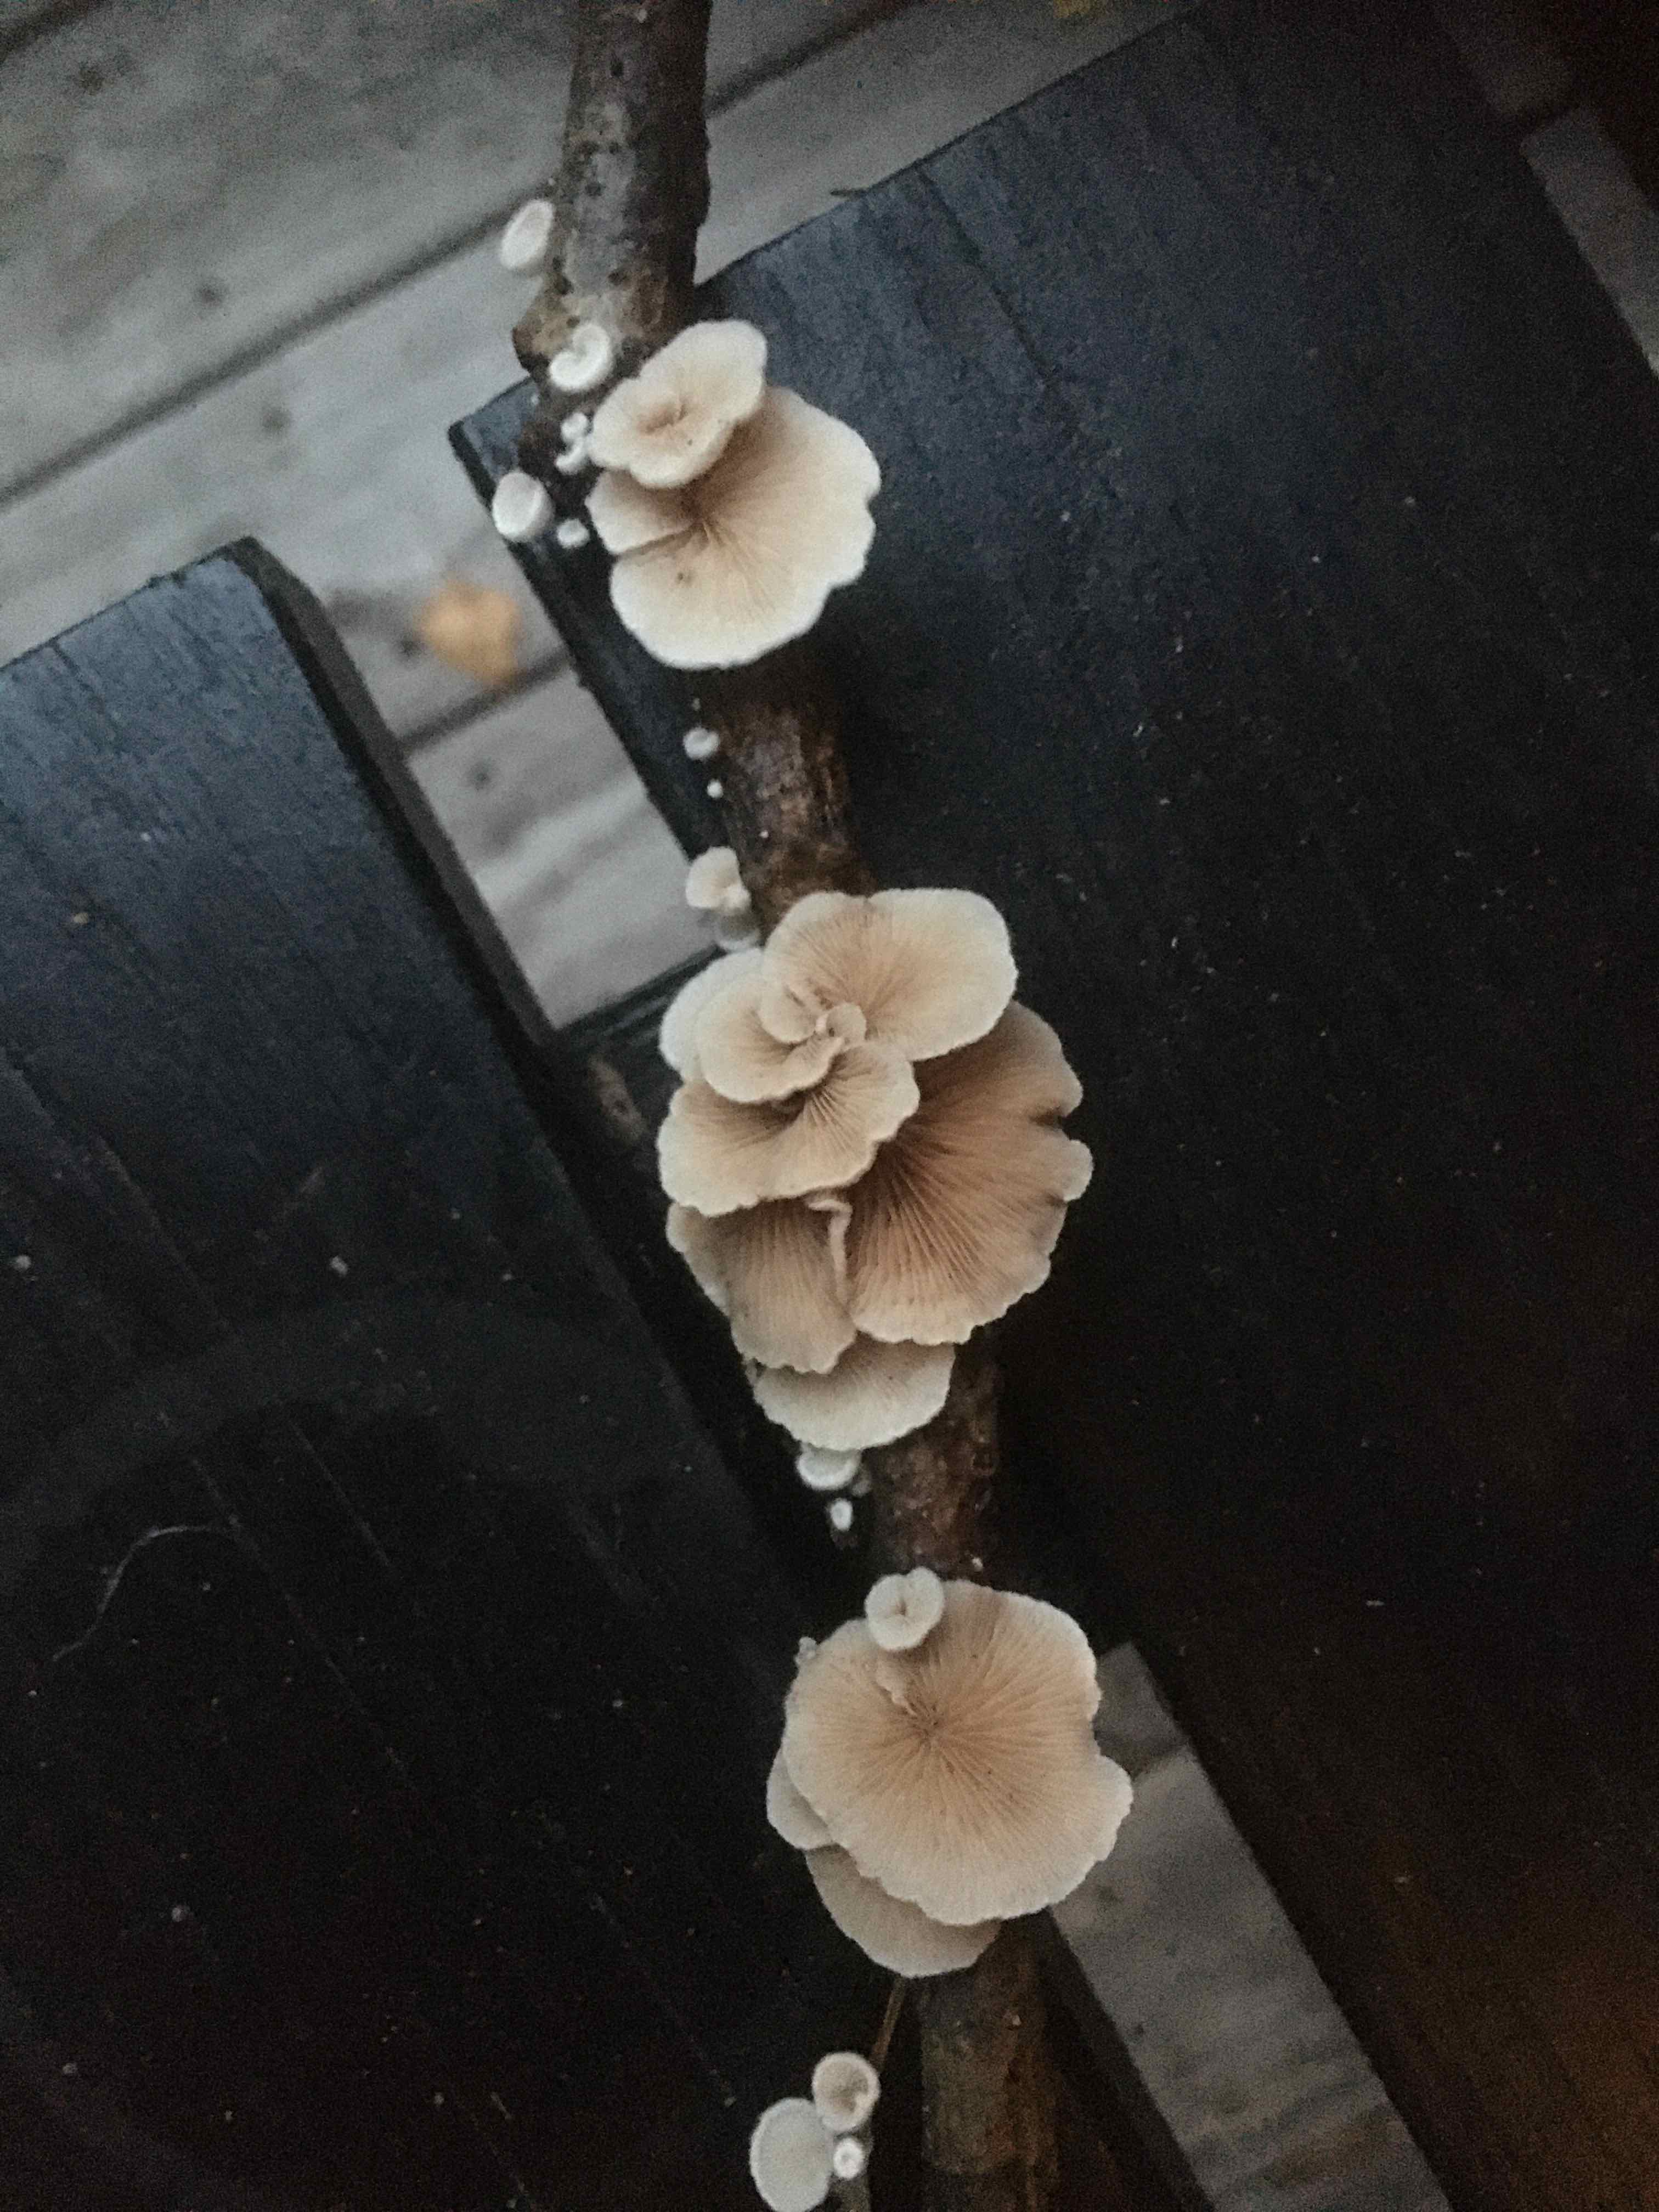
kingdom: Fungi
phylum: Basidiomycota
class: Agaricomycetes
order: Agaricales
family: Crepidotaceae
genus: Crepidotus
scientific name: Crepidotus
